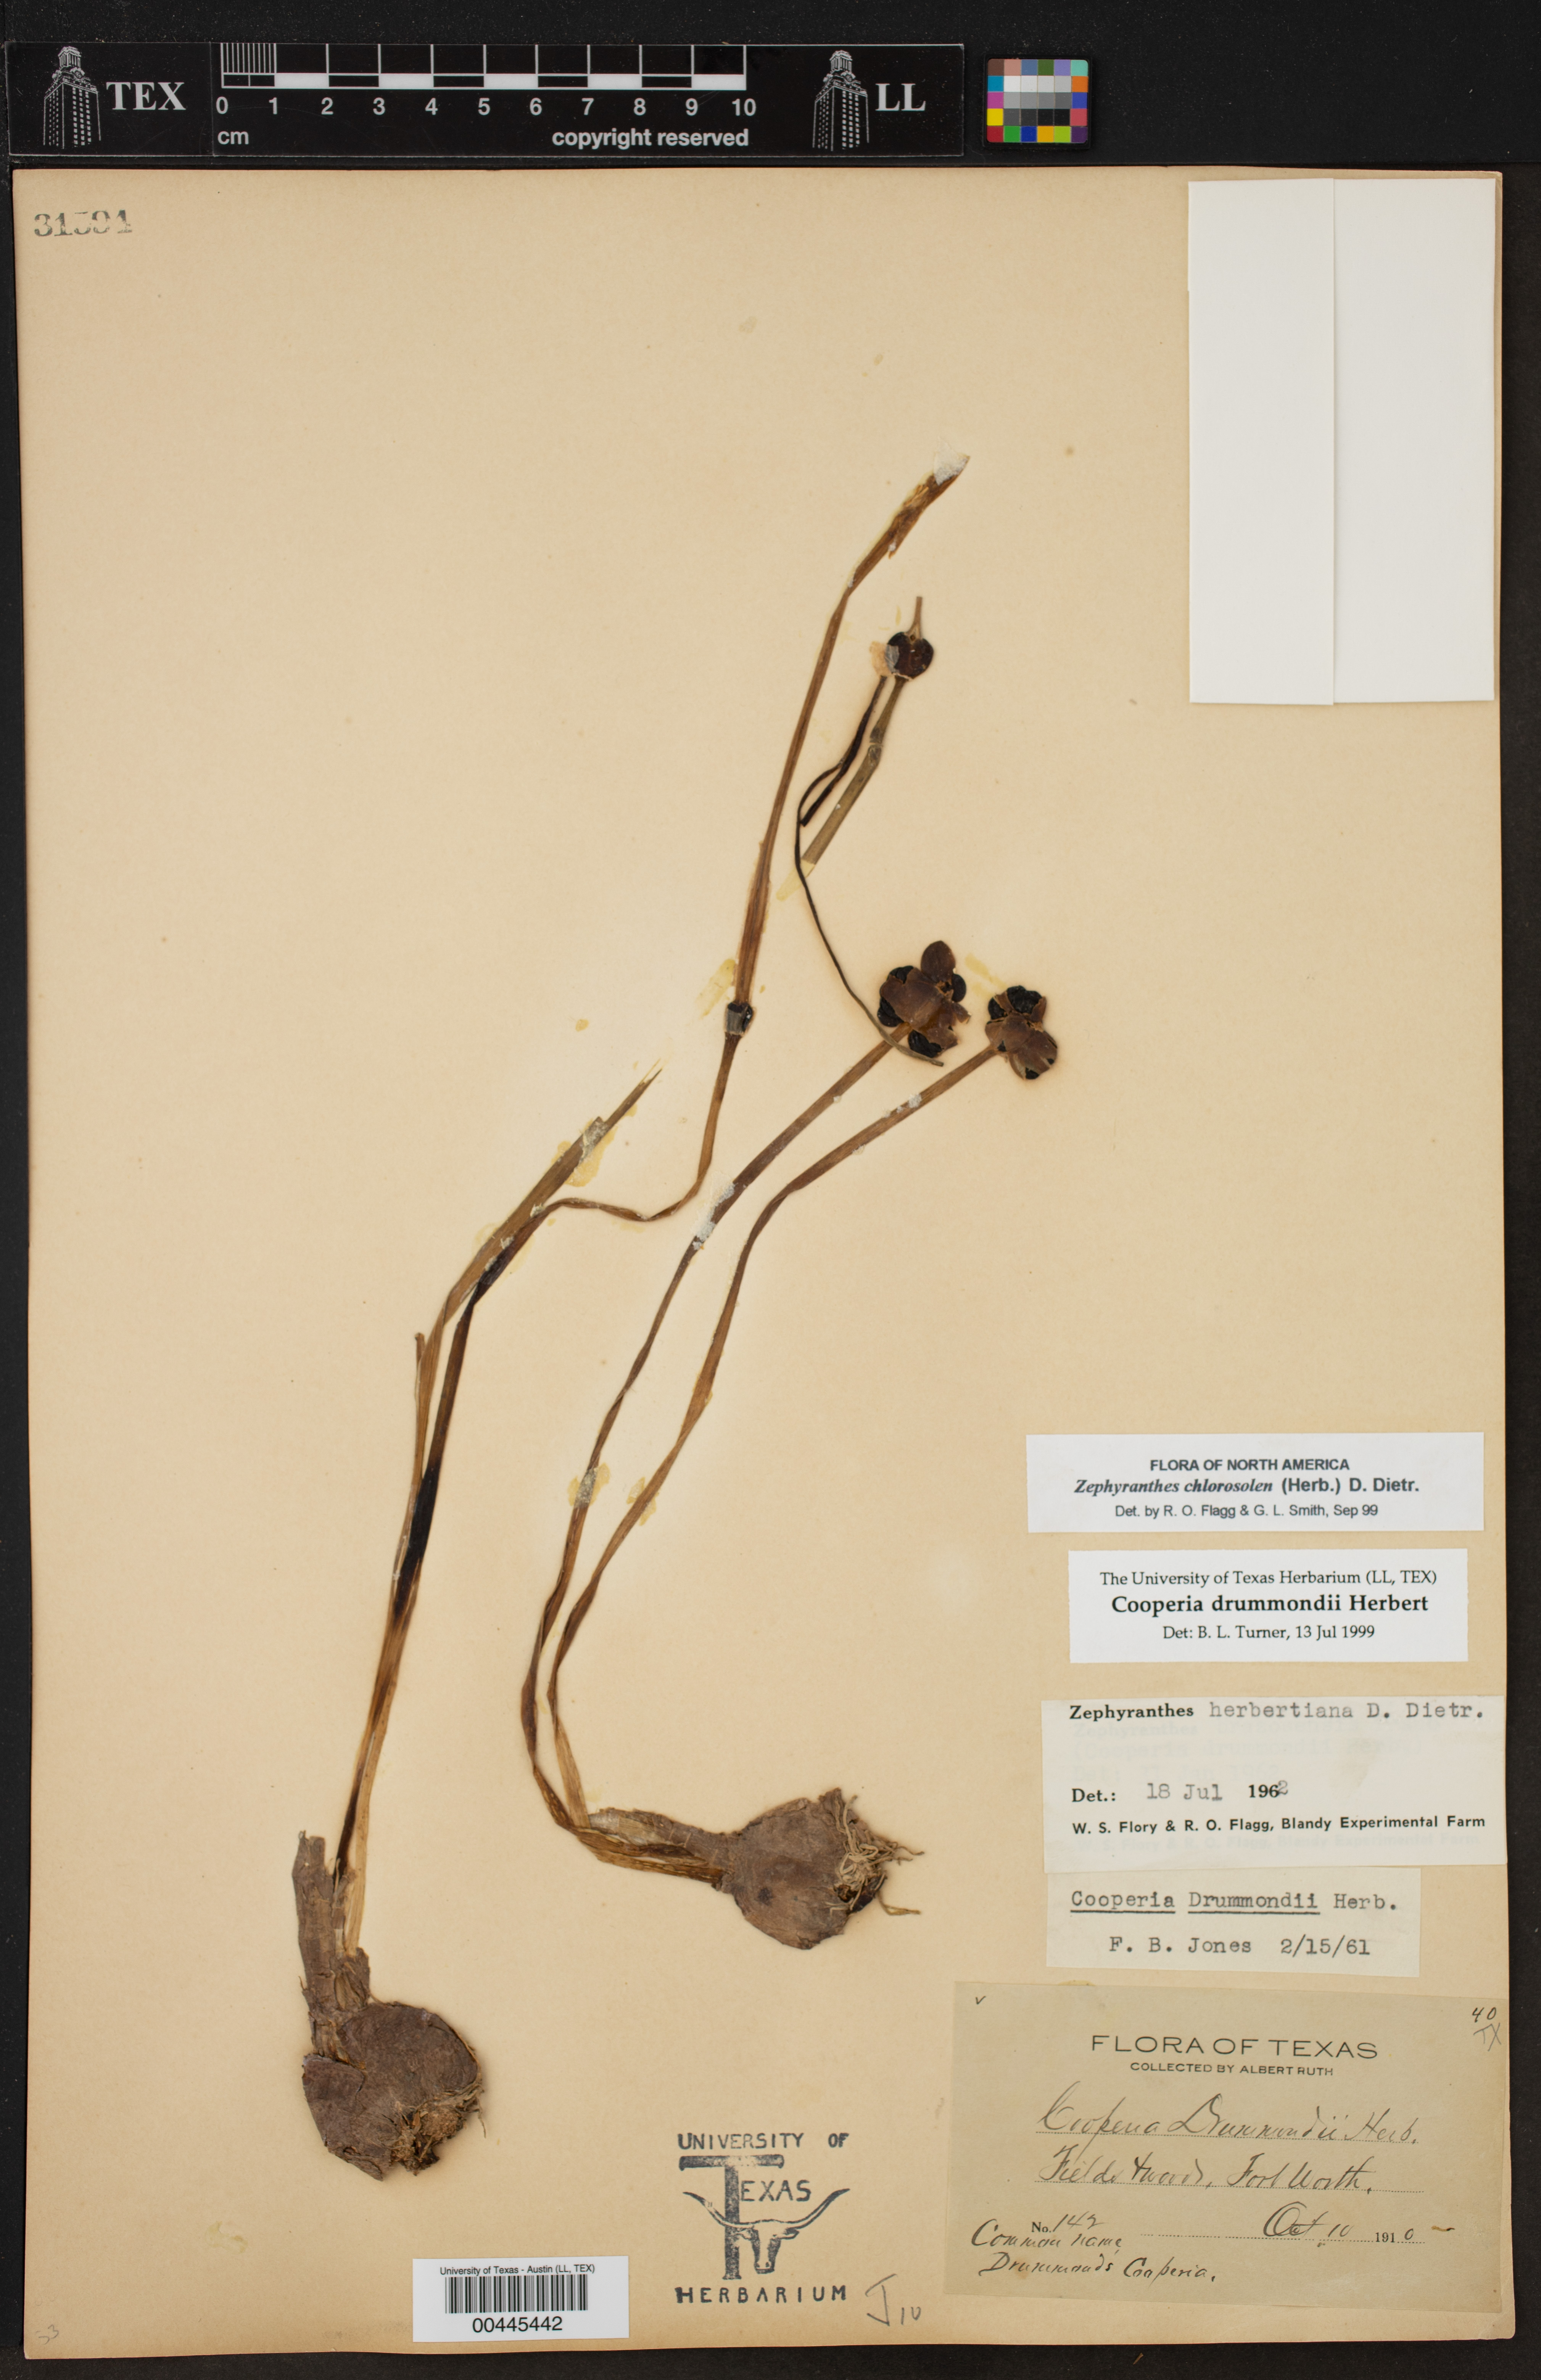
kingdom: Plantae
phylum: Tracheophyta
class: Liliopsida
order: Asparagales
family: Amaryllidaceae
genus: Zephyranthes
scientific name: Zephyranthes chlorosolen
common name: Evening rain-lily
